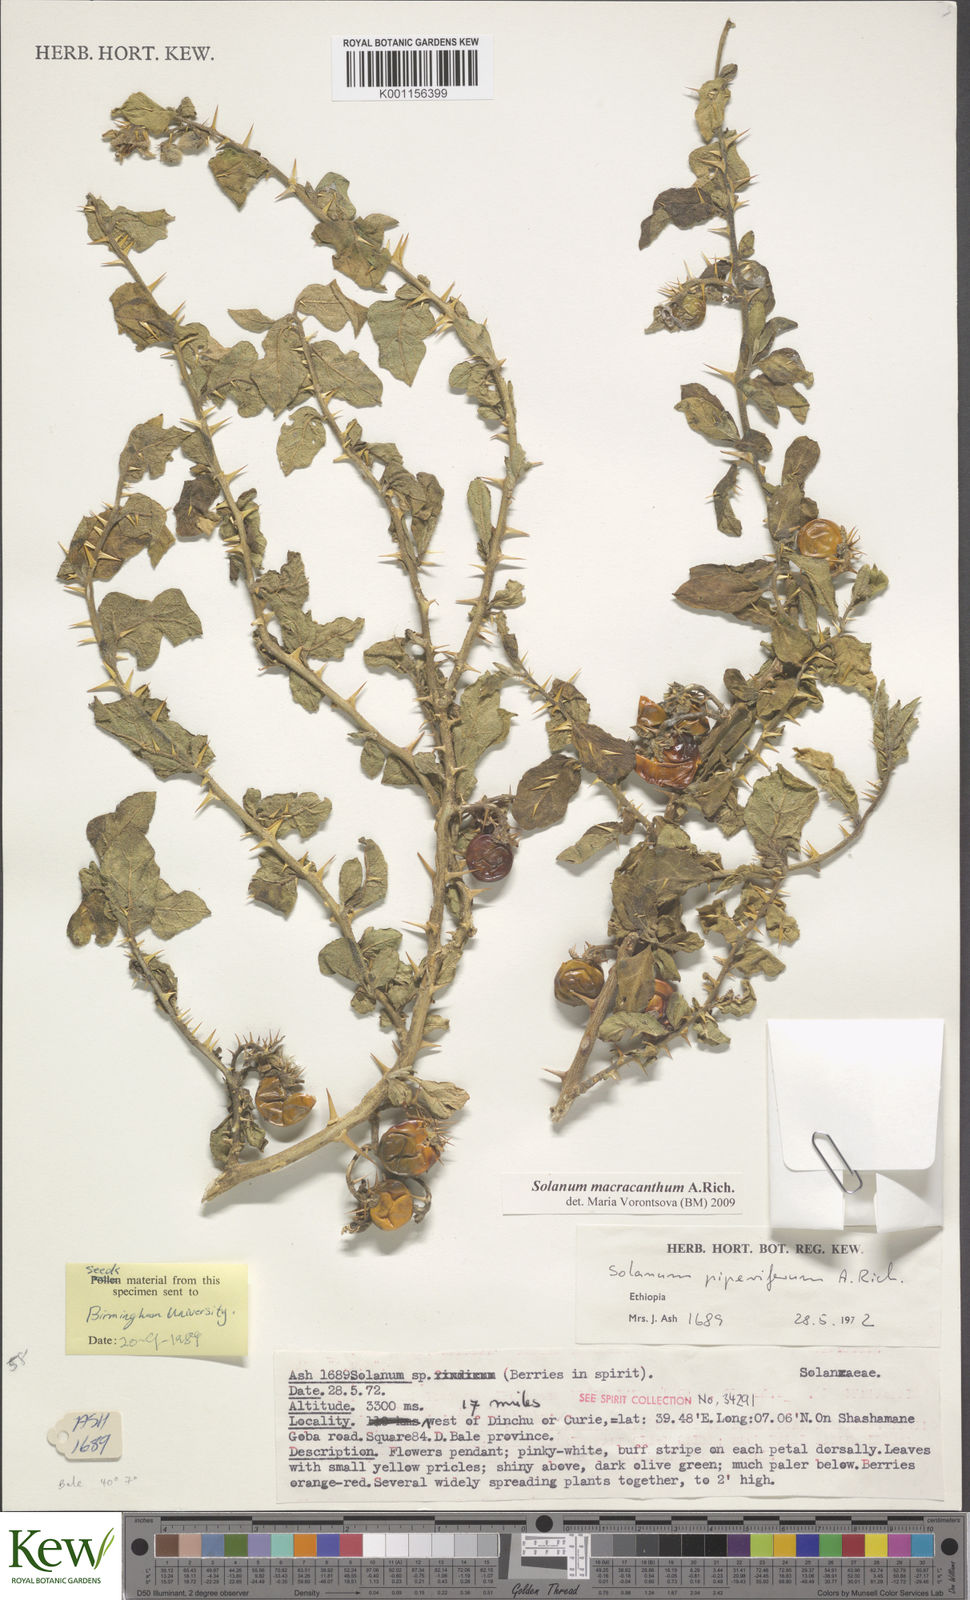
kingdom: Plantae
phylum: Tracheophyta
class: Magnoliopsida
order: Solanales
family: Solanaceae
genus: Solanum
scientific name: Solanum macracanthum
